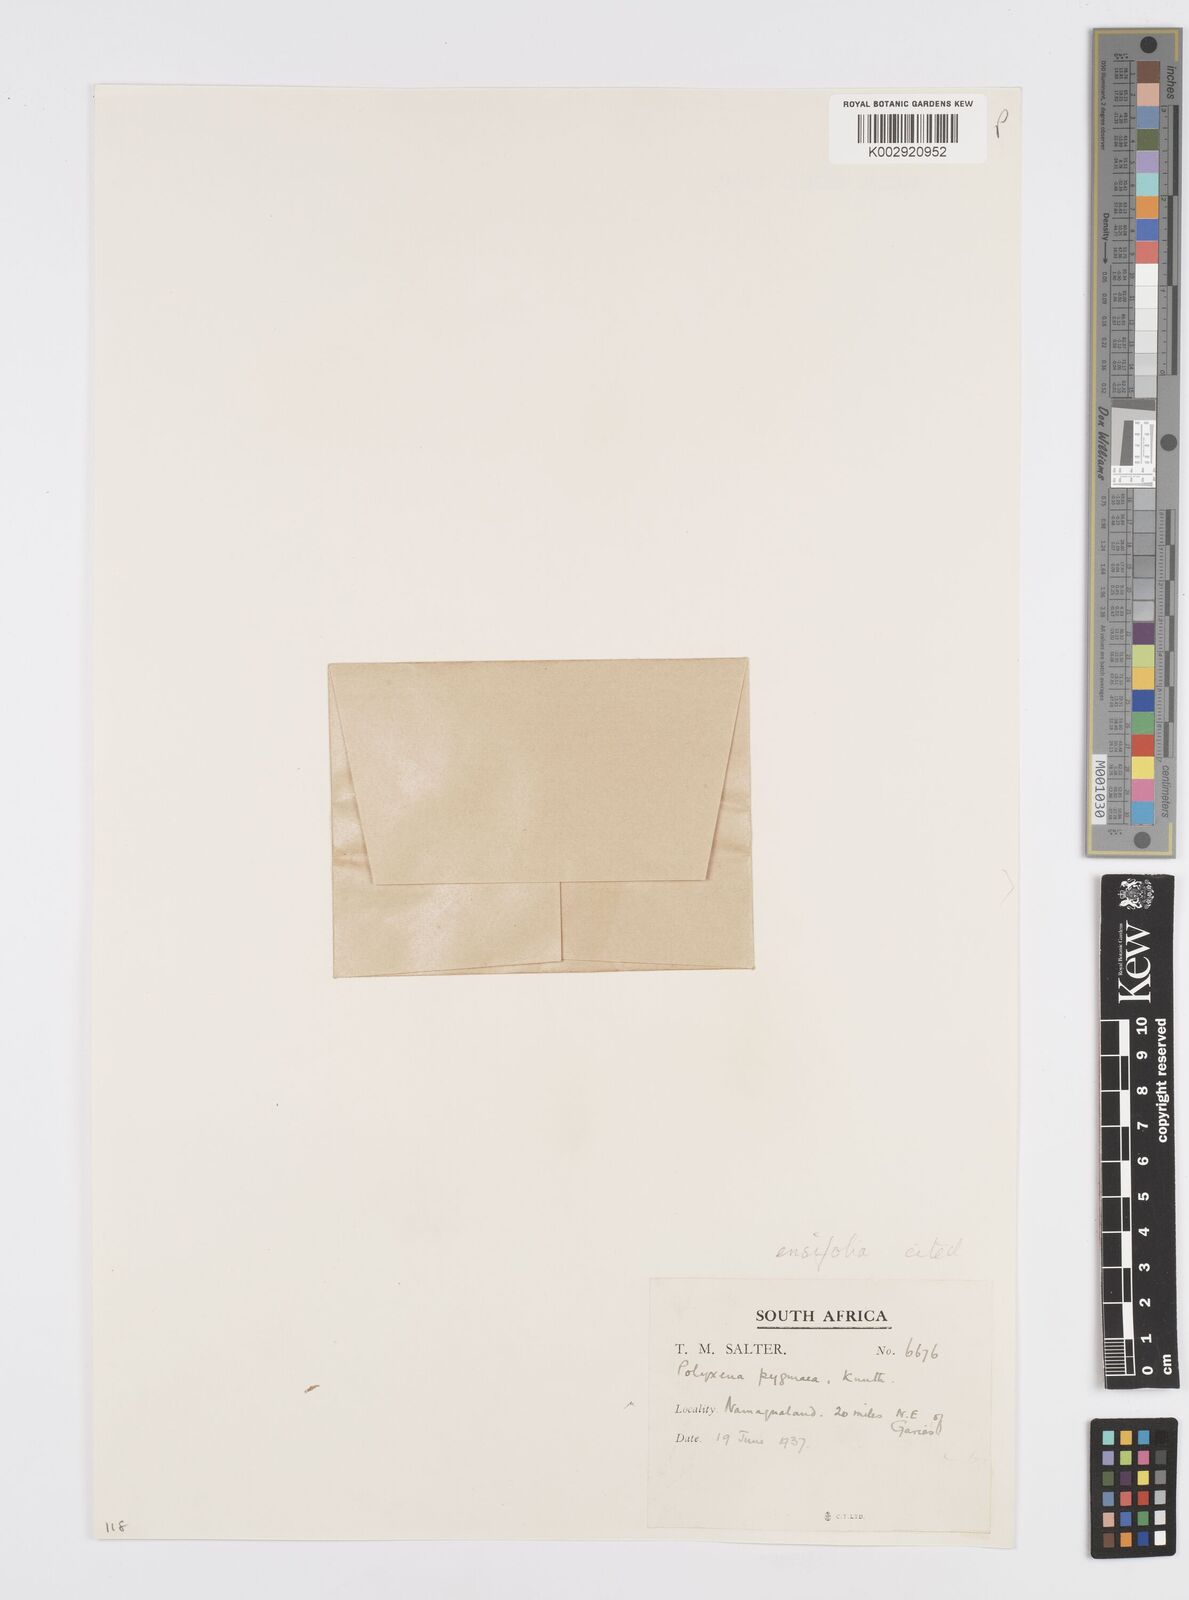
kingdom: Plantae
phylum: Tracheophyta
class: Liliopsida
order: Asparagales
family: Asparagaceae
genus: Lachenalia
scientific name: Lachenalia ensifolia
